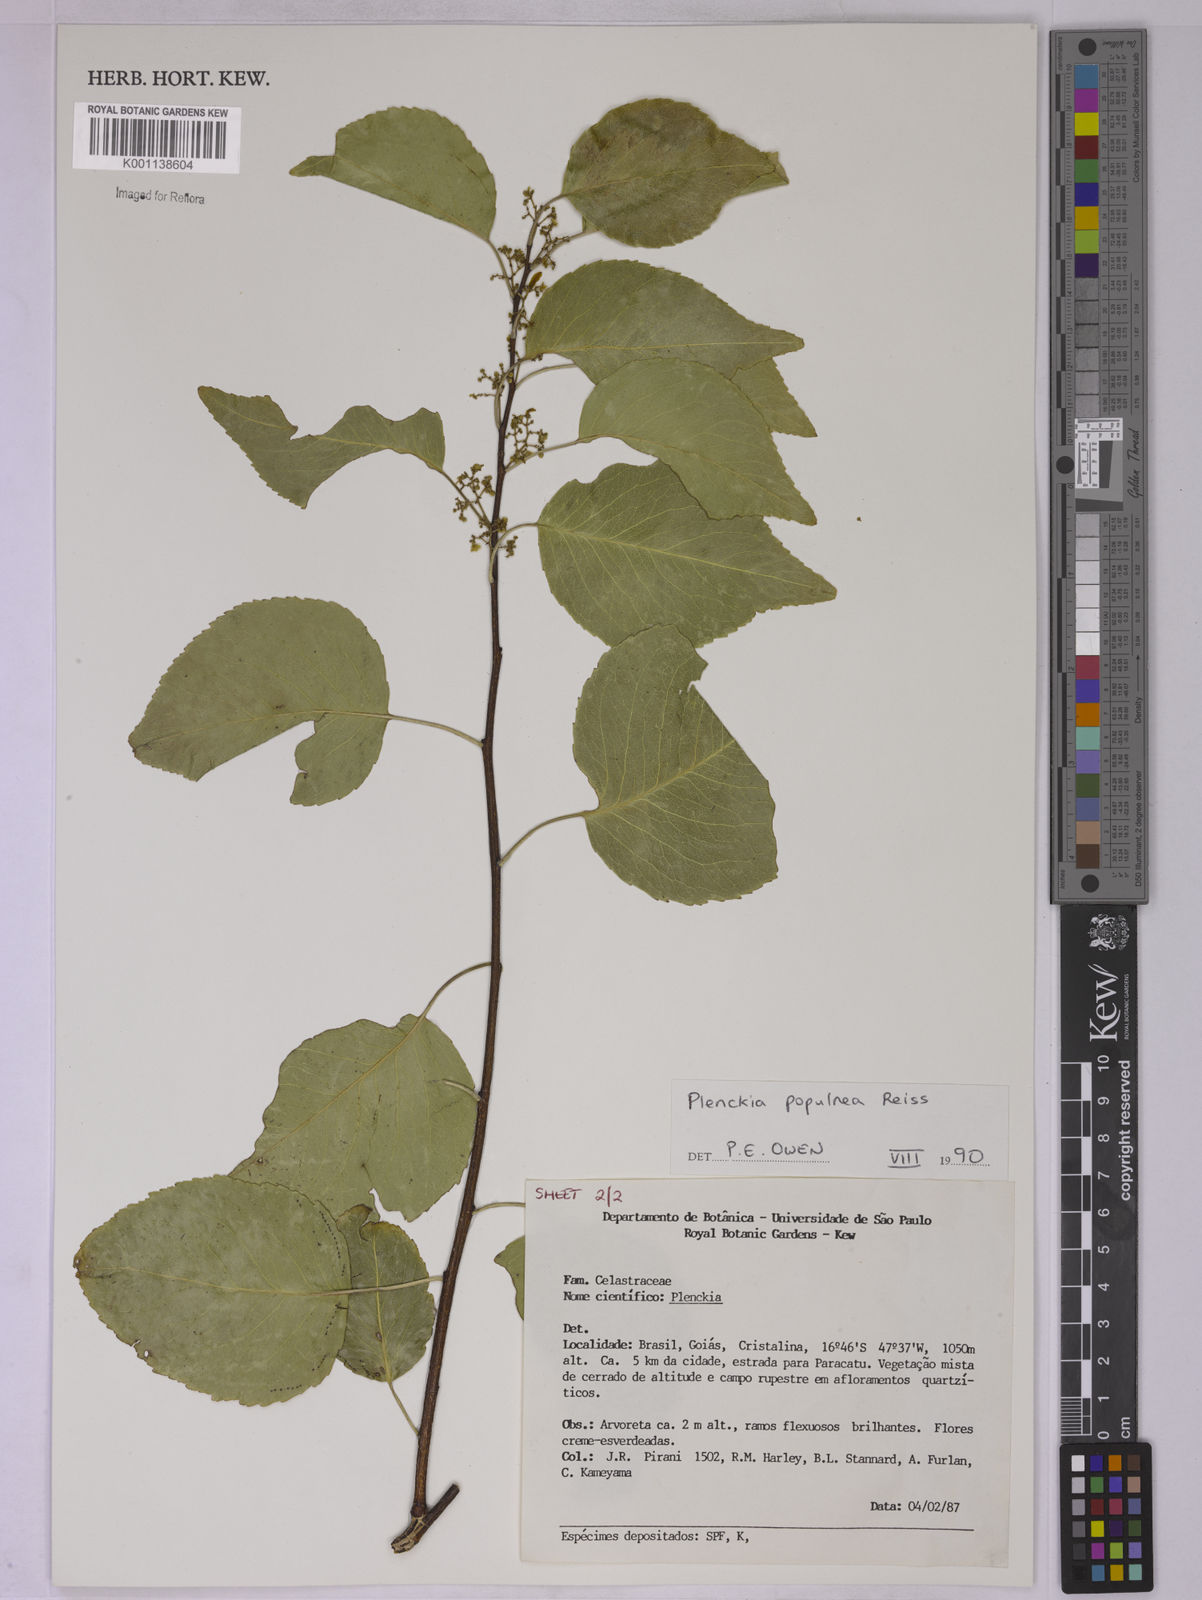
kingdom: Plantae
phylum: Tracheophyta
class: Magnoliopsida
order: Celastrales
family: Celastraceae
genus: Plenckia
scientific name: Plenckia populnea
